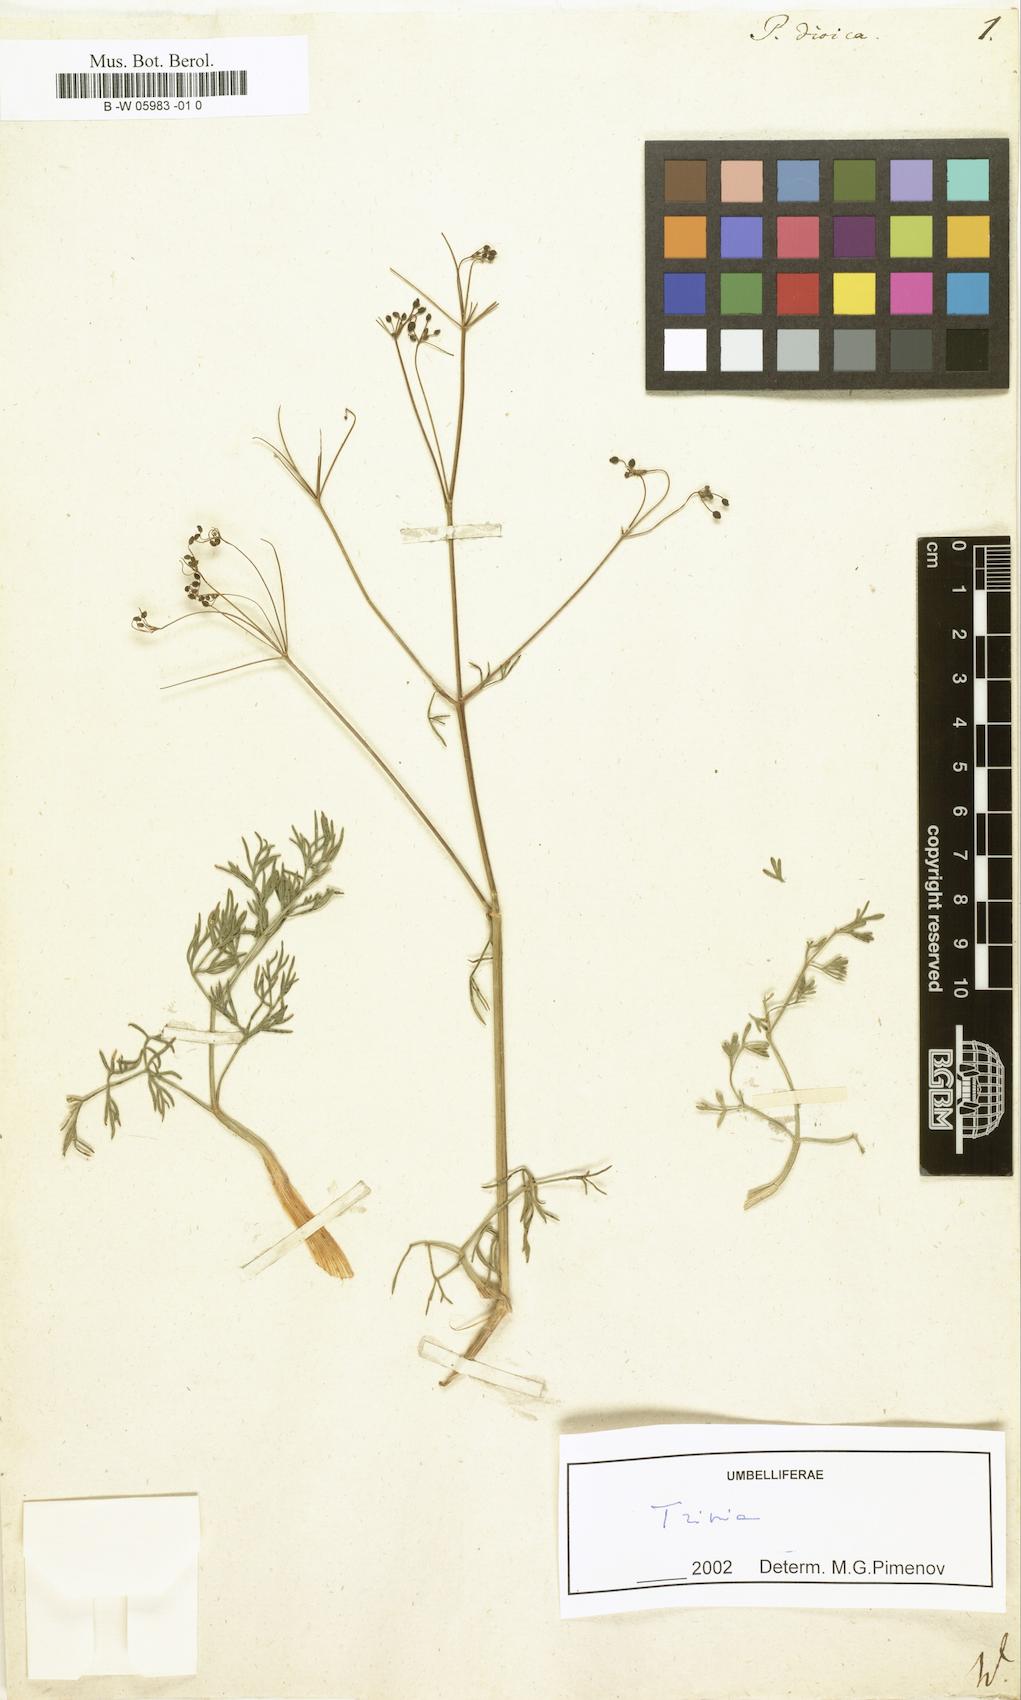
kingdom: Plantae
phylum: Tracheophyta
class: Magnoliopsida
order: Apiales
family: Apiaceae
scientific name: Apiaceae
